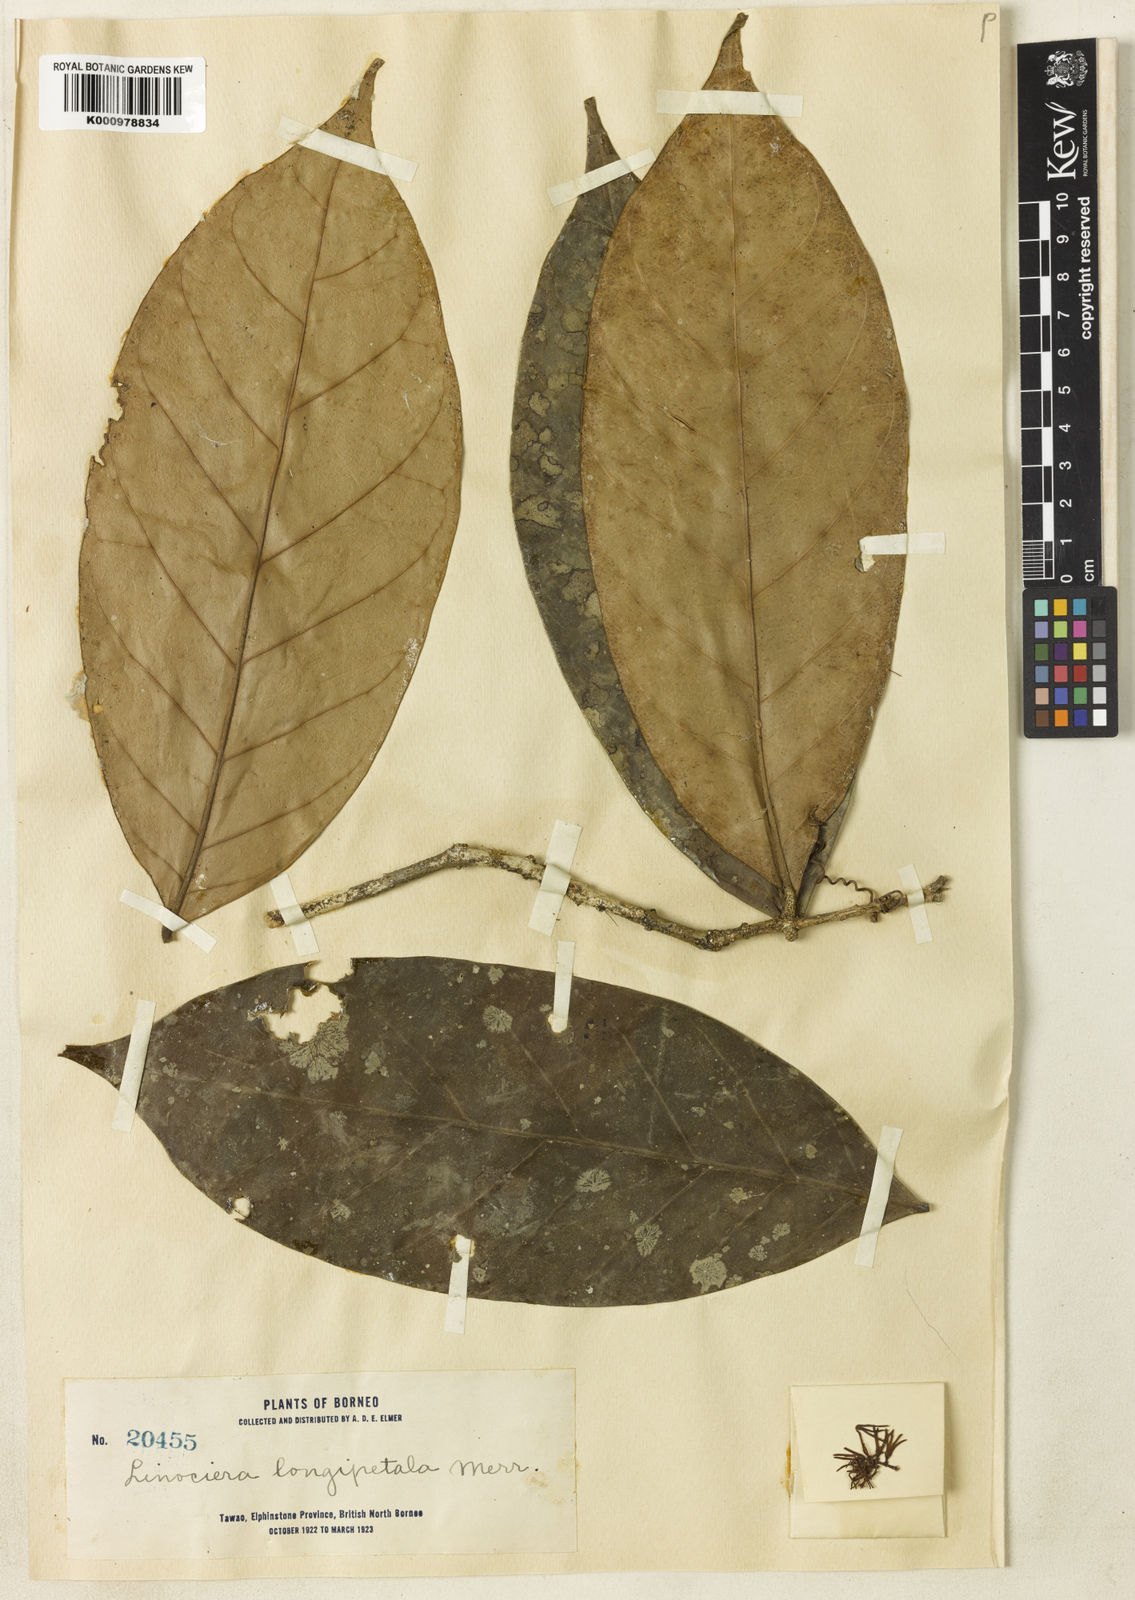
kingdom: Plantae
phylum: Tracheophyta
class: Magnoliopsida
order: Lamiales
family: Oleaceae
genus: Chionanthus
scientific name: Chionanthus longipetalus
